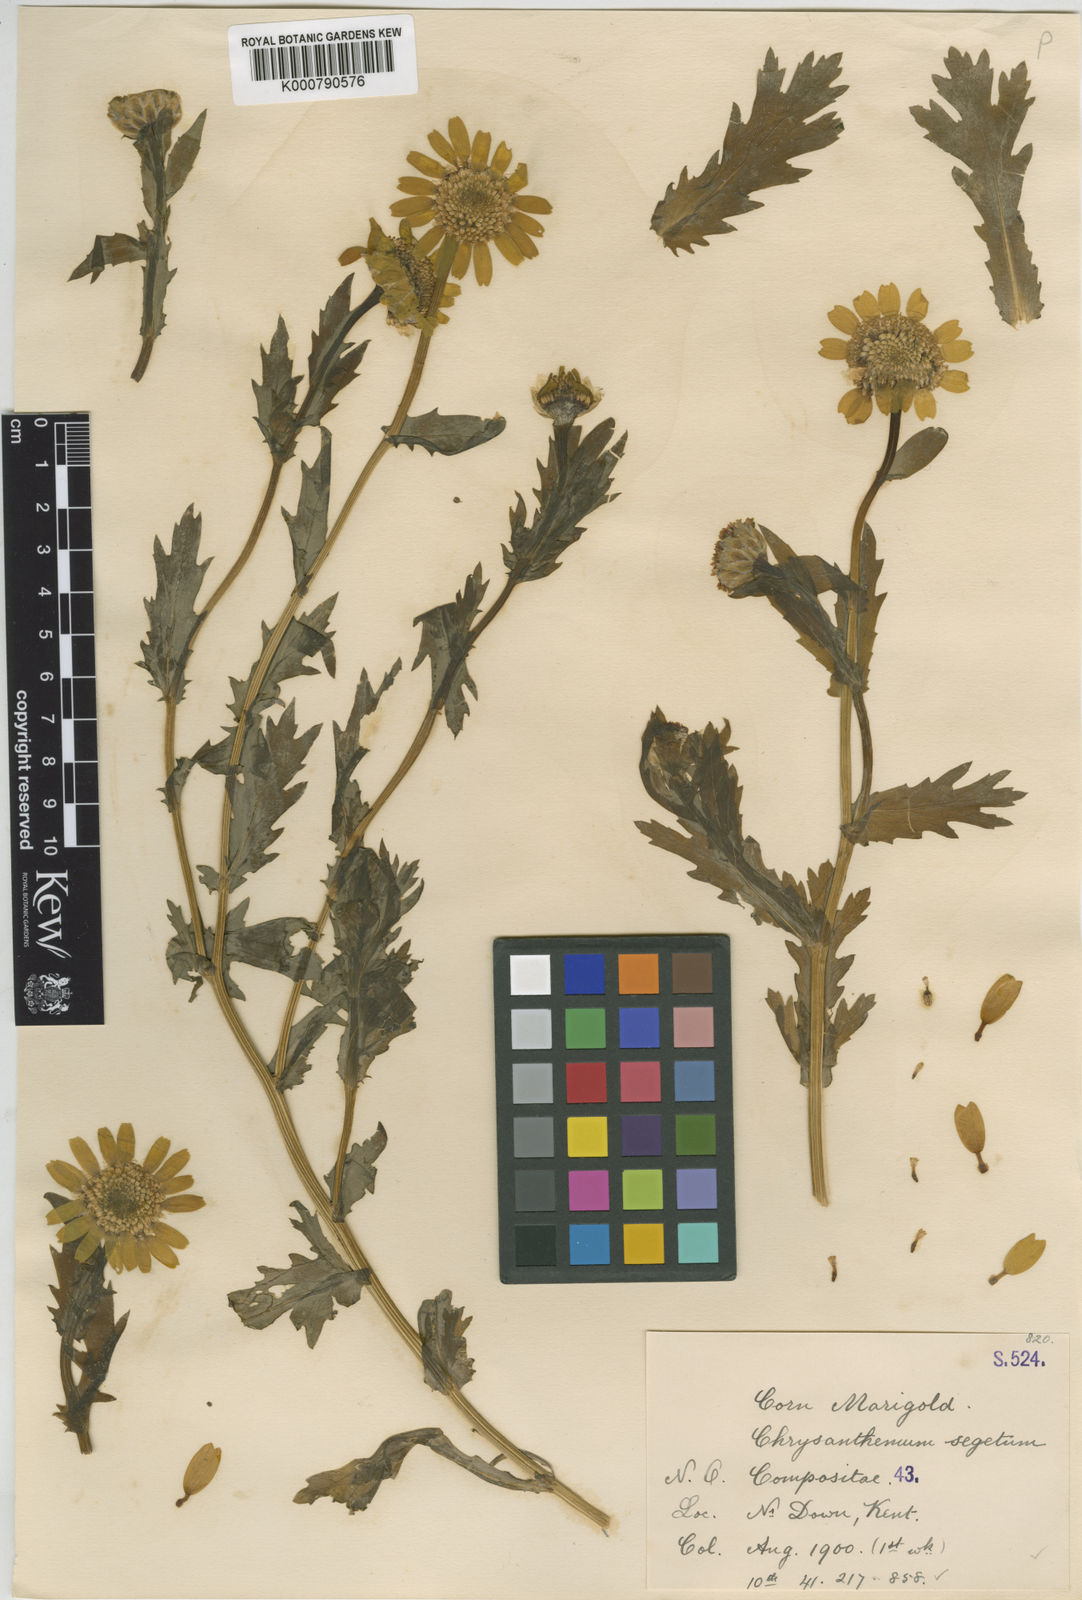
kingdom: Plantae
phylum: Tracheophyta
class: Magnoliopsida
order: Asterales
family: Asteraceae
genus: Glebionis
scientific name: Glebionis segetum
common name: Corndaisy
